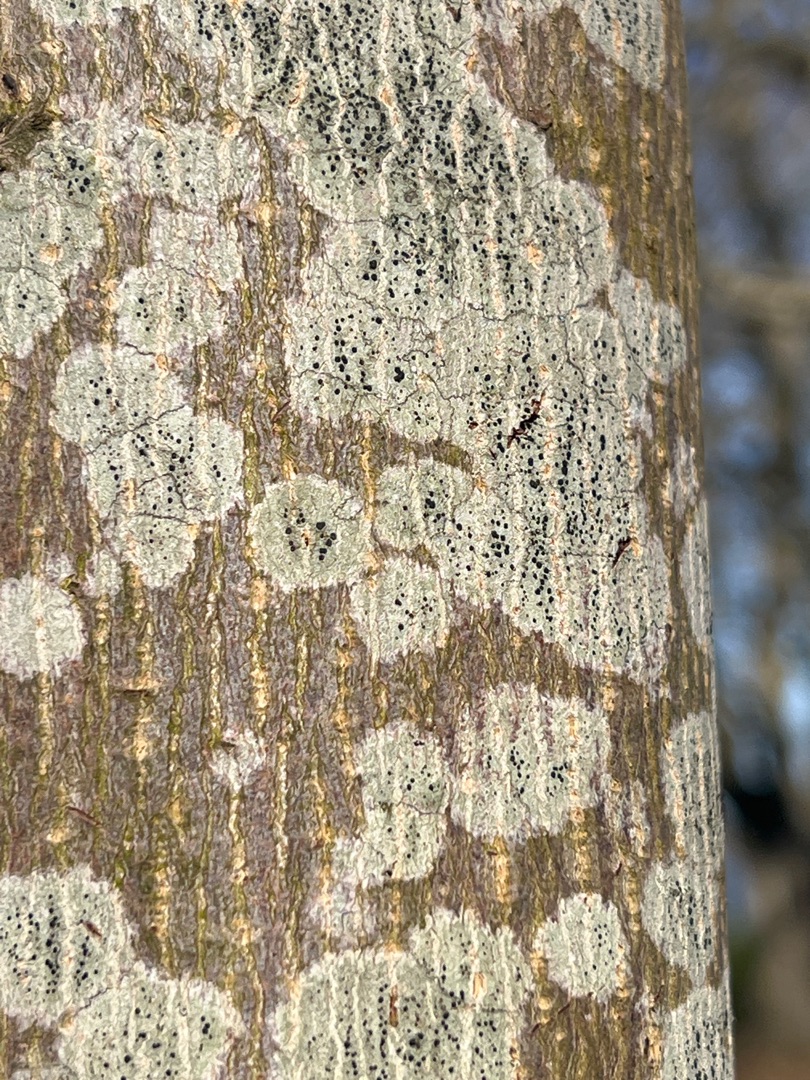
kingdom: Fungi
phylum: Ascomycota
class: Lecanoromycetes
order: Lecanorales
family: Lecanoraceae
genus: Lecidella
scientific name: Lecidella elaeochroma
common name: Grågrøn skivelav
